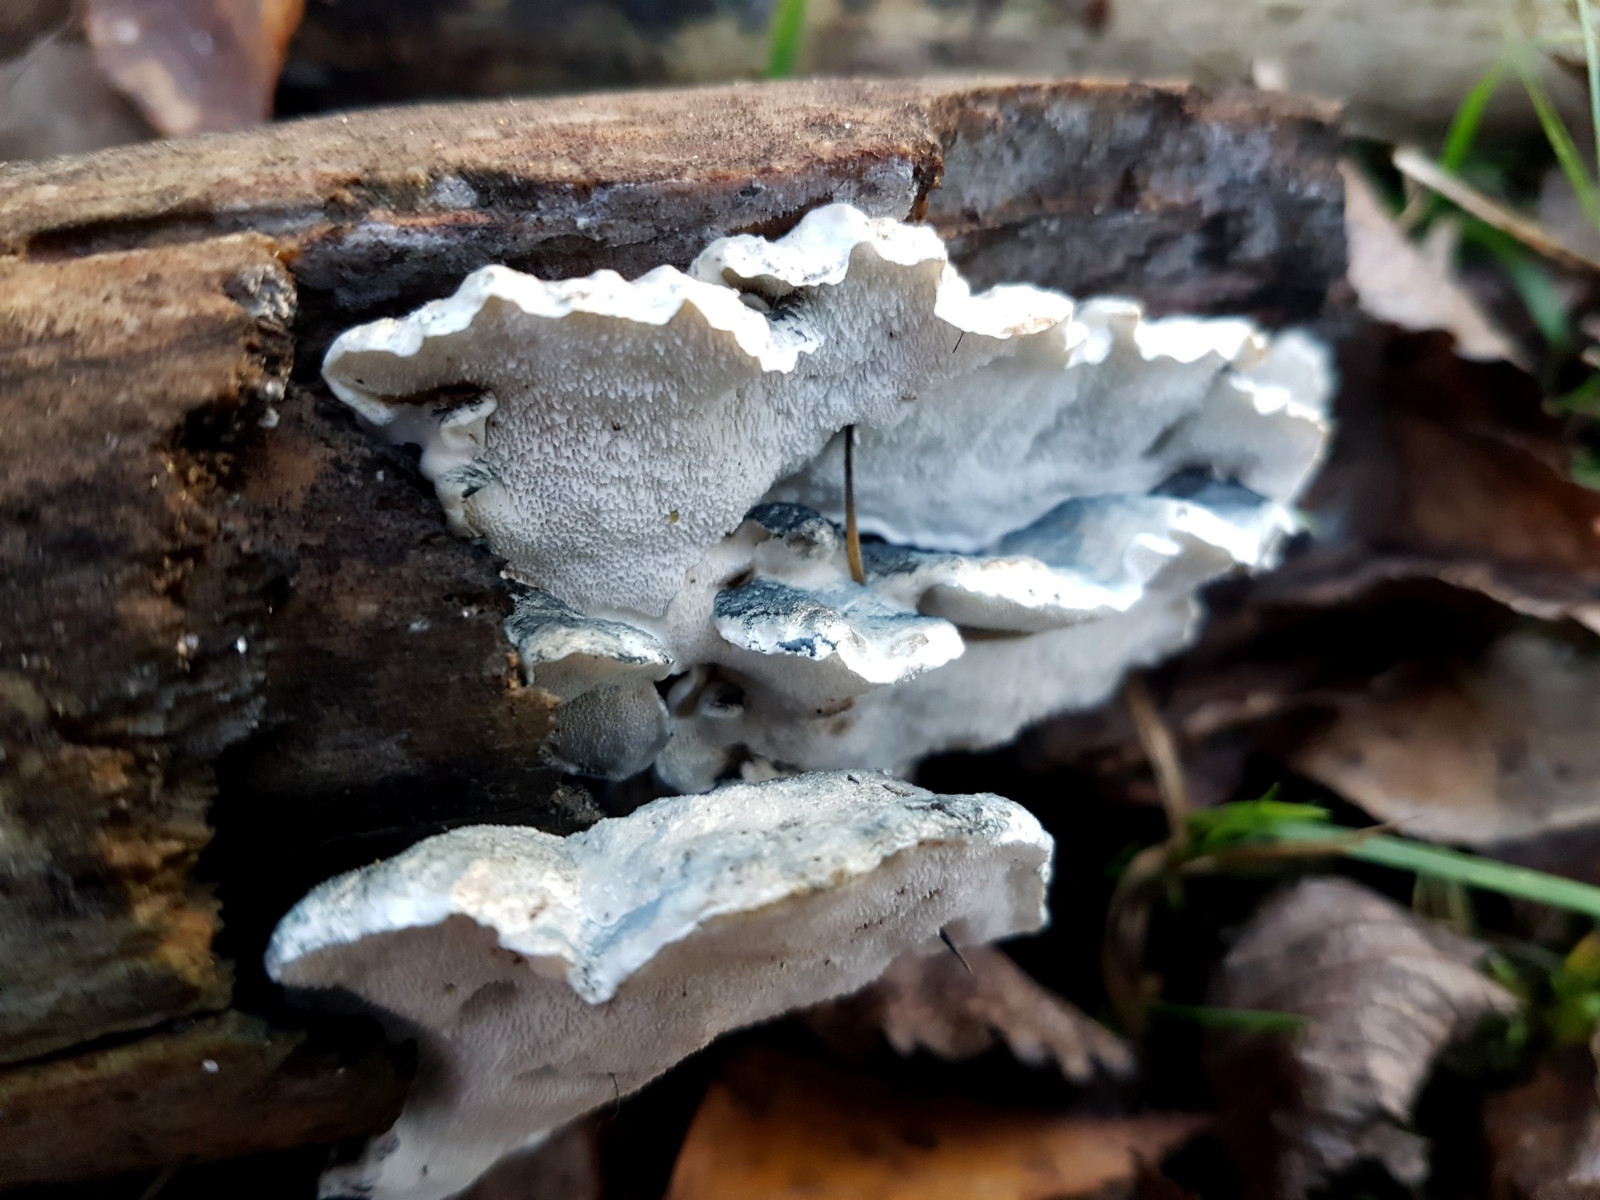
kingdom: Fungi
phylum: Basidiomycota
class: Agaricomycetes
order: Polyporales
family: Dacryobolaceae
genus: Postia
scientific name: Postia
